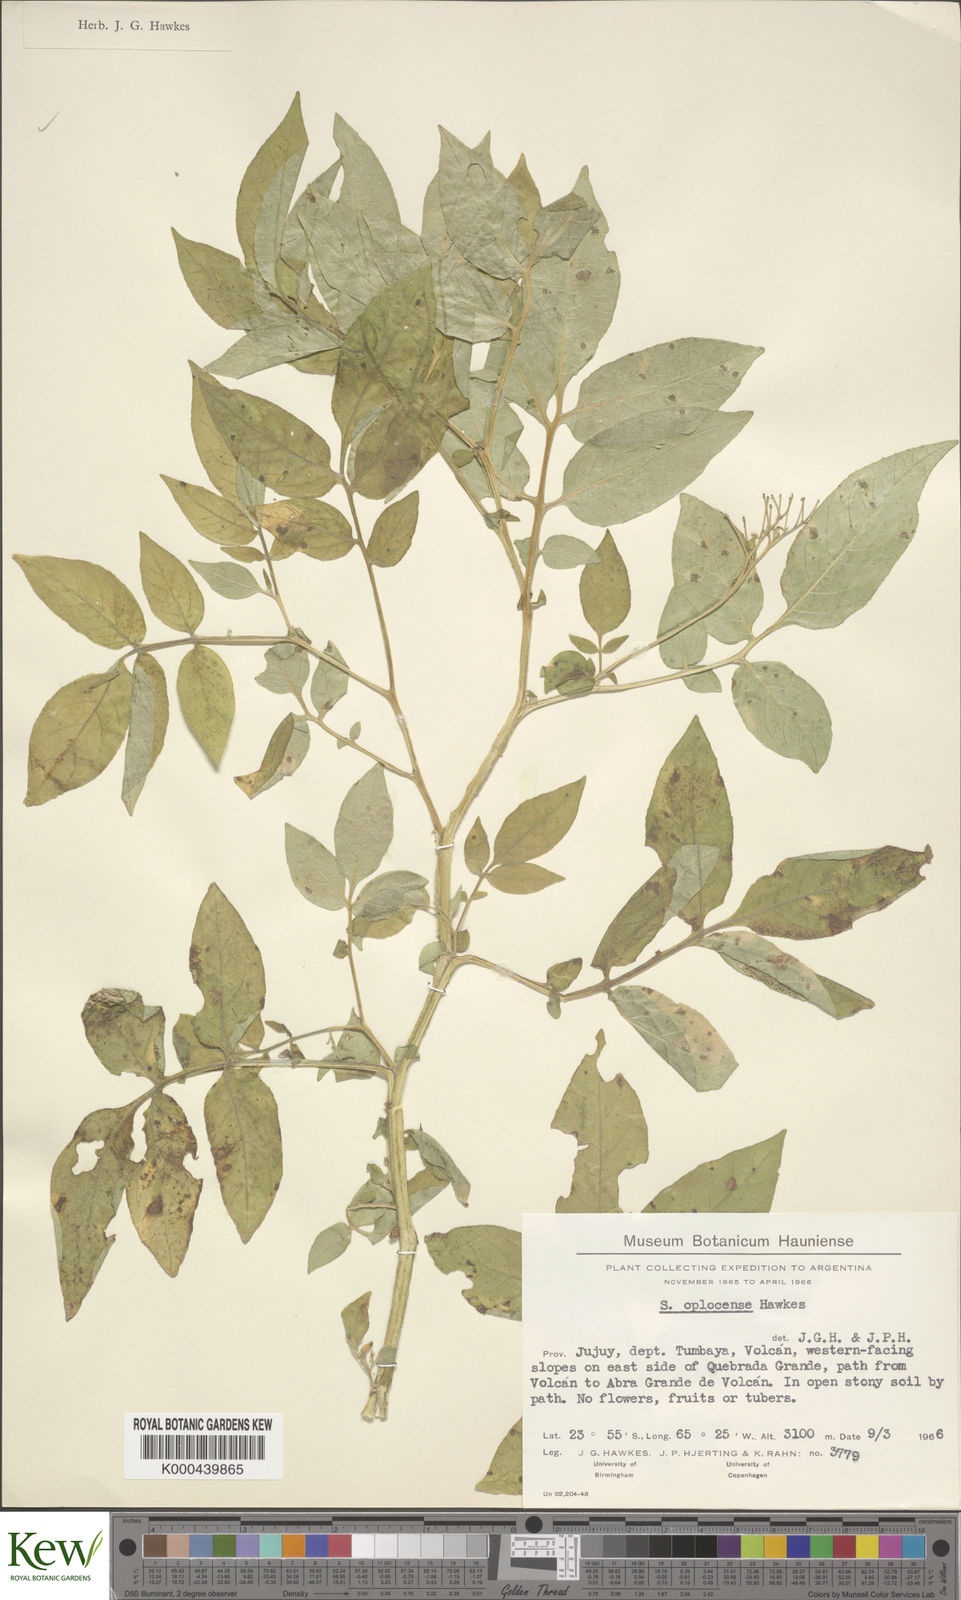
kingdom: Plantae
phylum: Tracheophyta
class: Magnoliopsida
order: Solanales
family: Solanaceae
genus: Solanum
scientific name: Solanum brevicaule
